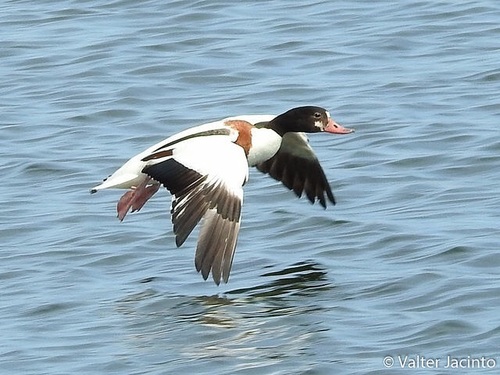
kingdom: Animalia
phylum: Chordata
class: Aves
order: Anseriformes
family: Anatidae
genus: Tadorna
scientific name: Tadorna tadorna
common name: Common shelduck
